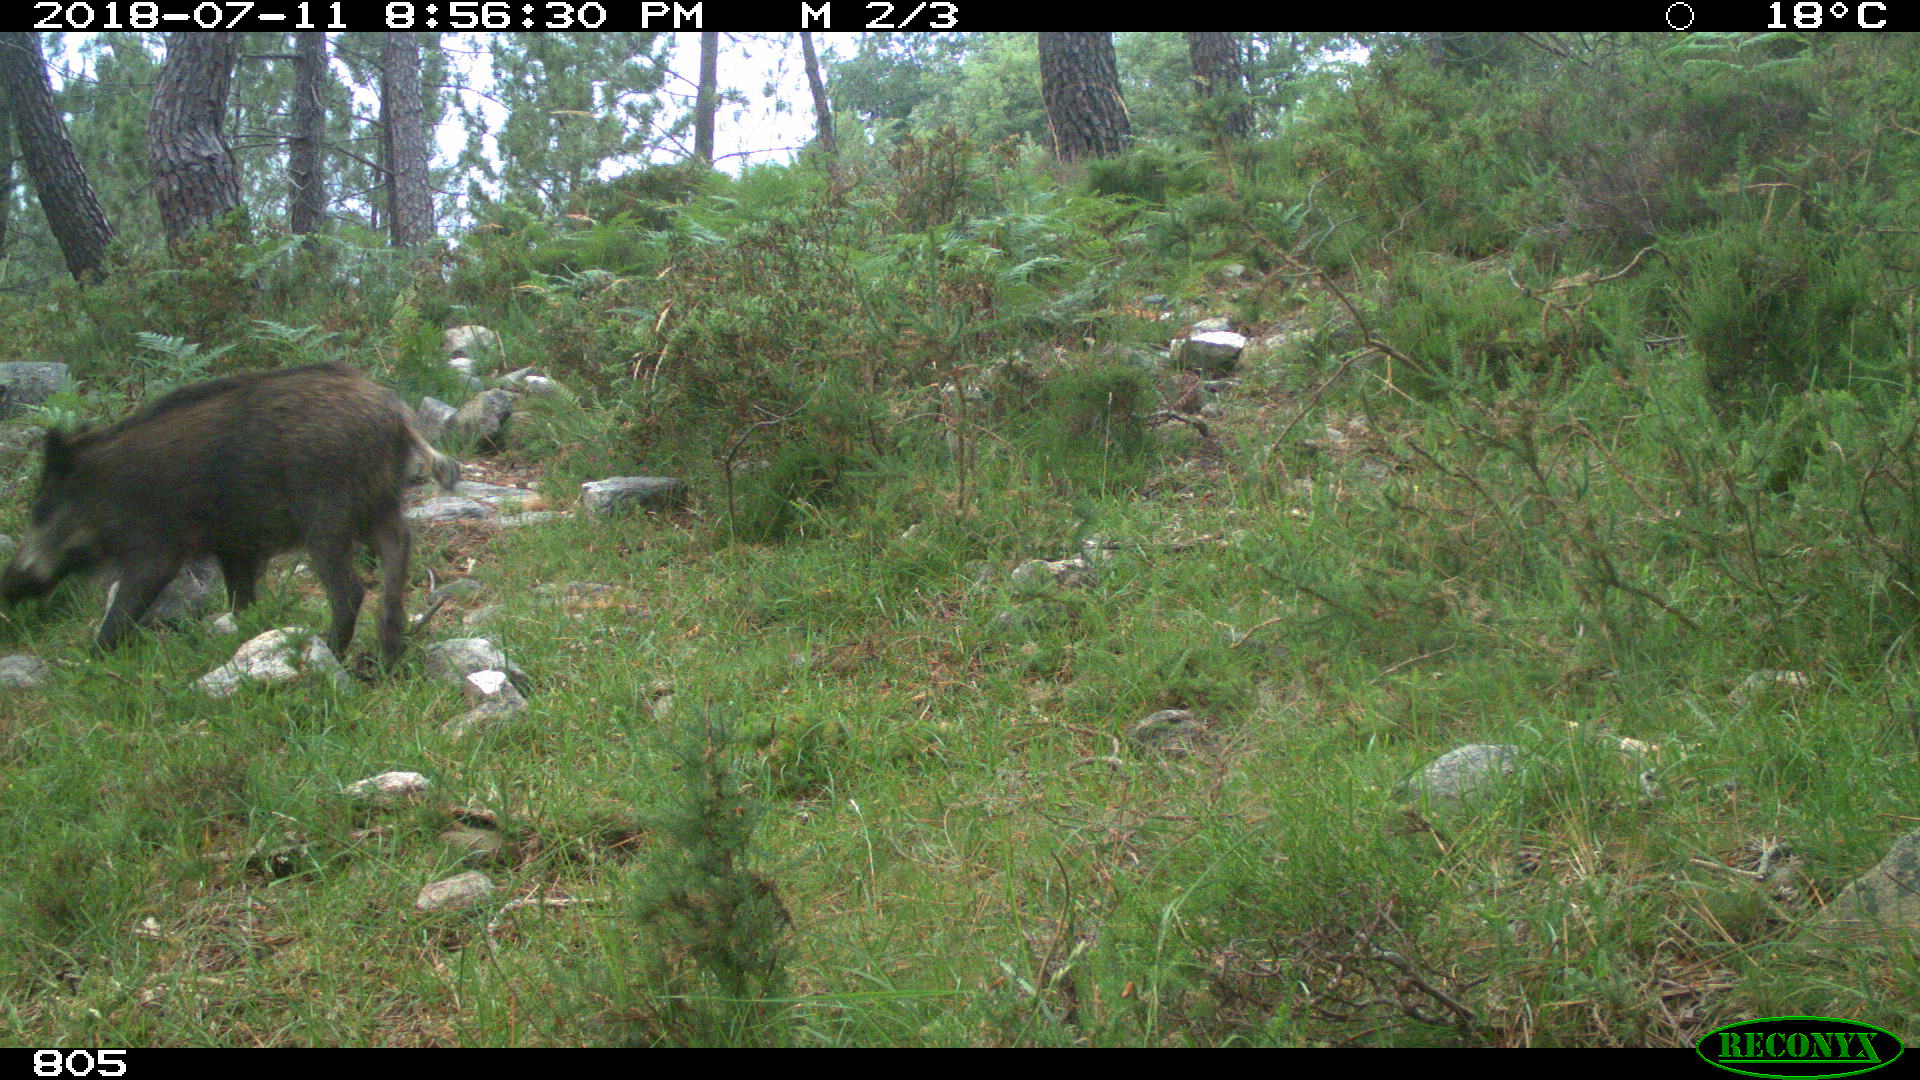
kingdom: Animalia
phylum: Chordata
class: Mammalia
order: Artiodactyla
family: Suidae
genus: Sus
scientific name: Sus scrofa
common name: Wild boar
